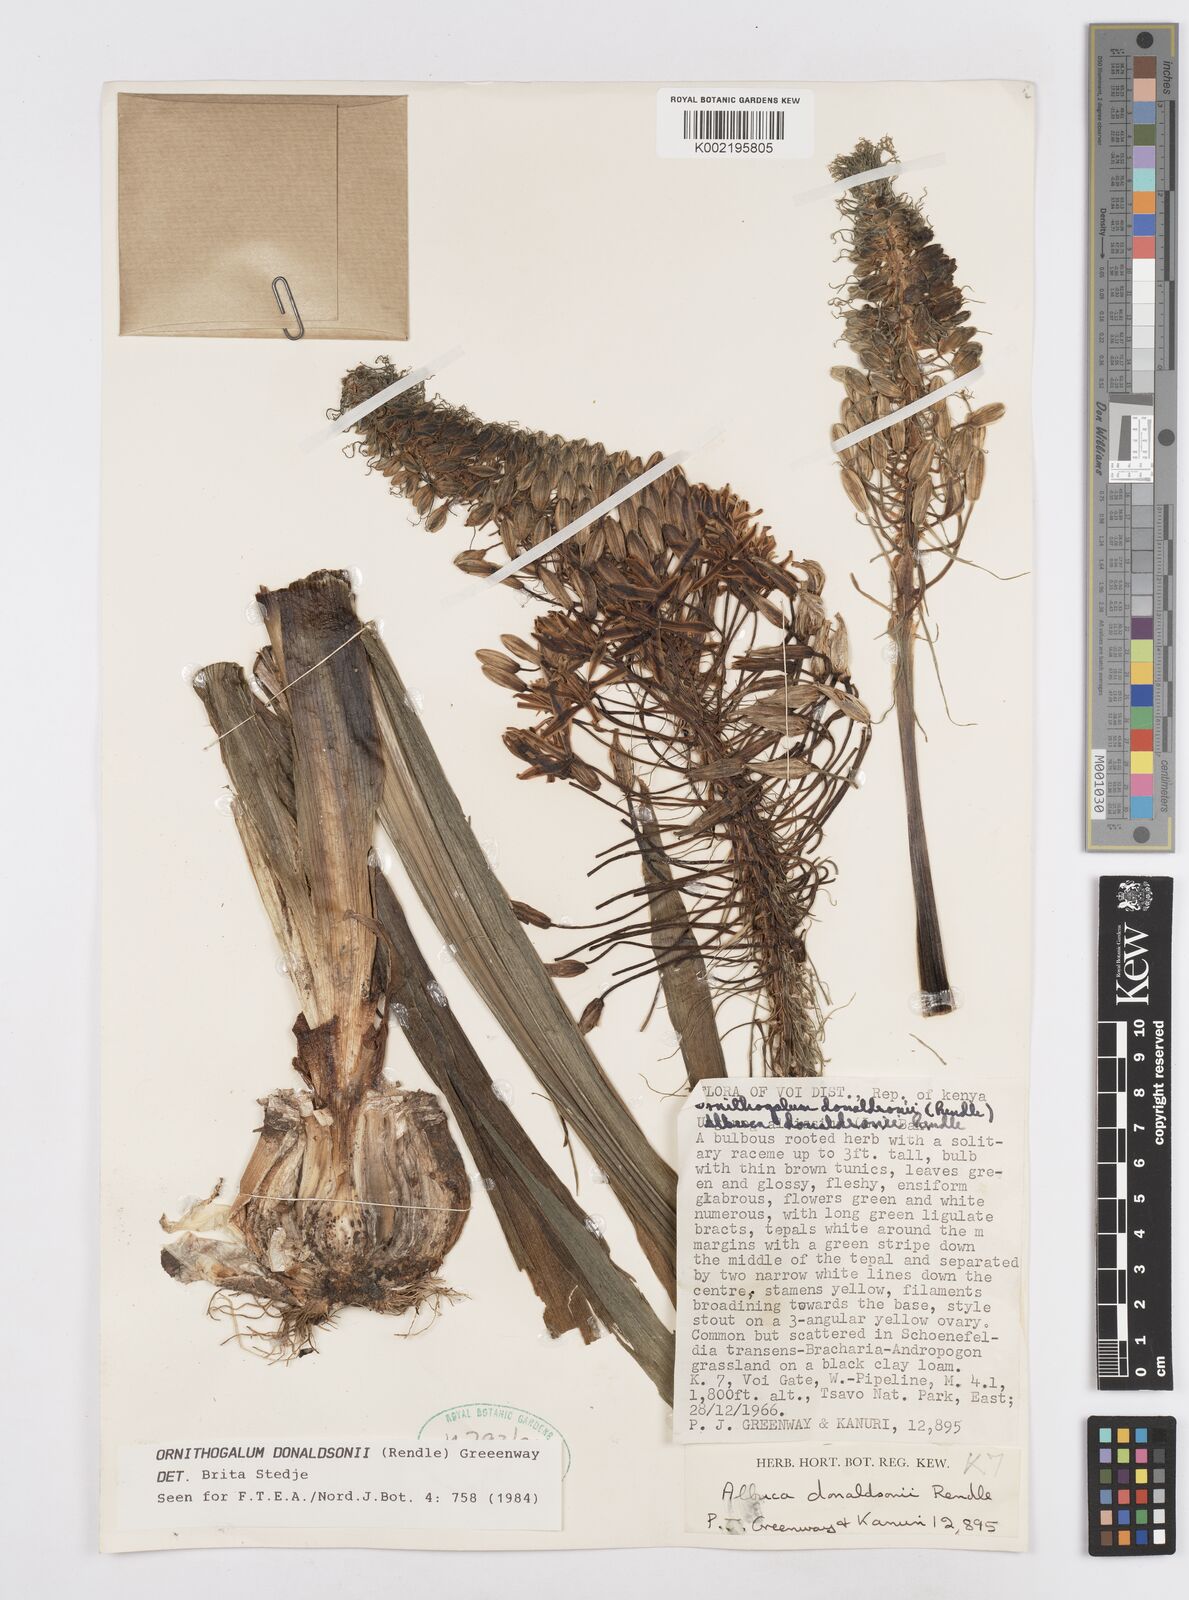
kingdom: Plantae
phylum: Tracheophyta
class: Liliopsida
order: Asparagales
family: Asparagaceae
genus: Albuca
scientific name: Albuca donaldsonii
